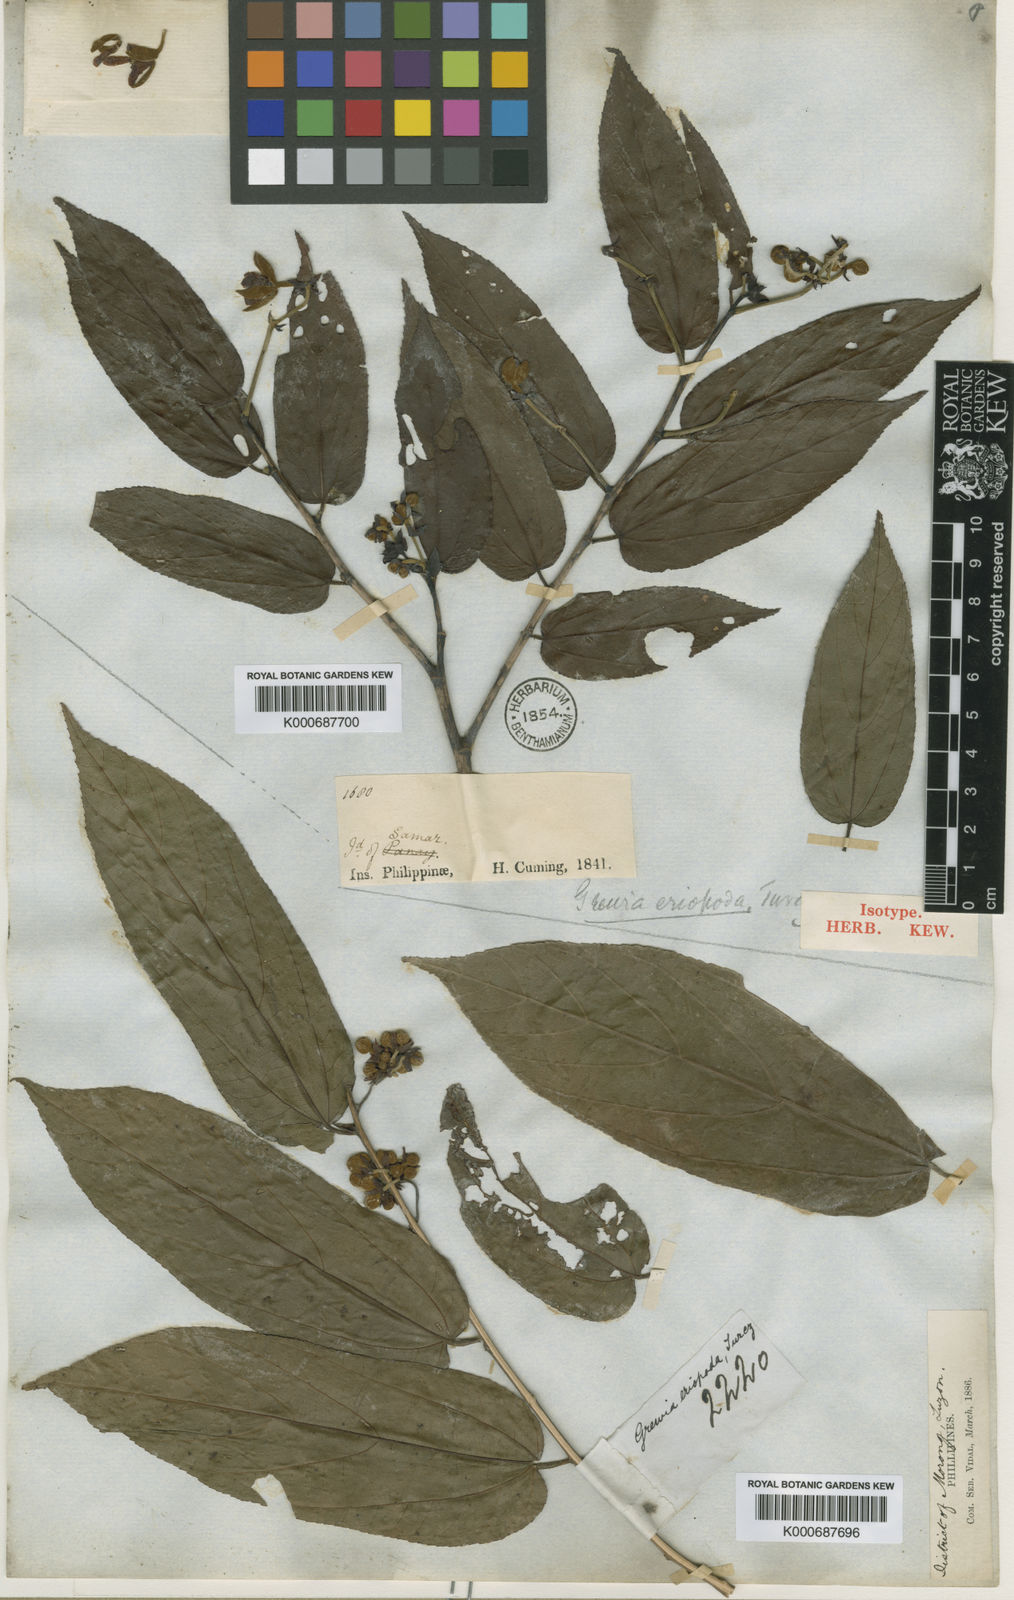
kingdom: Plantae
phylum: Tracheophyta
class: Magnoliopsida
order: Malvales
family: Malvaceae
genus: Trichospermum
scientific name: Trichospermum eriopodum
